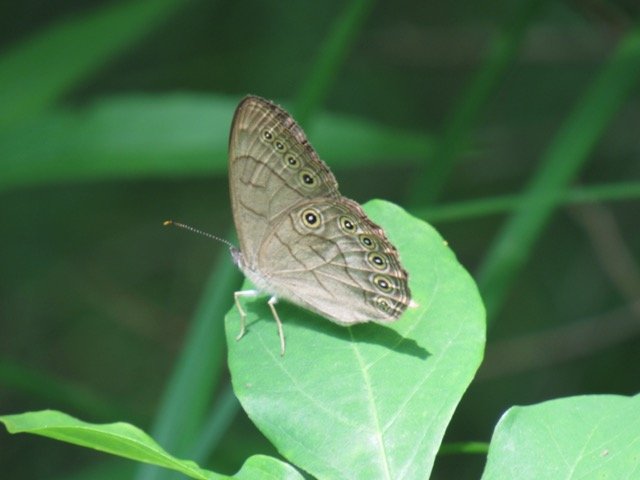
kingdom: Animalia
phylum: Arthropoda
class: Insecta
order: Lepidoptera
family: Nymphalidae
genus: Lethe
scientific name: Lethe eurydice
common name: Appalachian Eyed Brown
